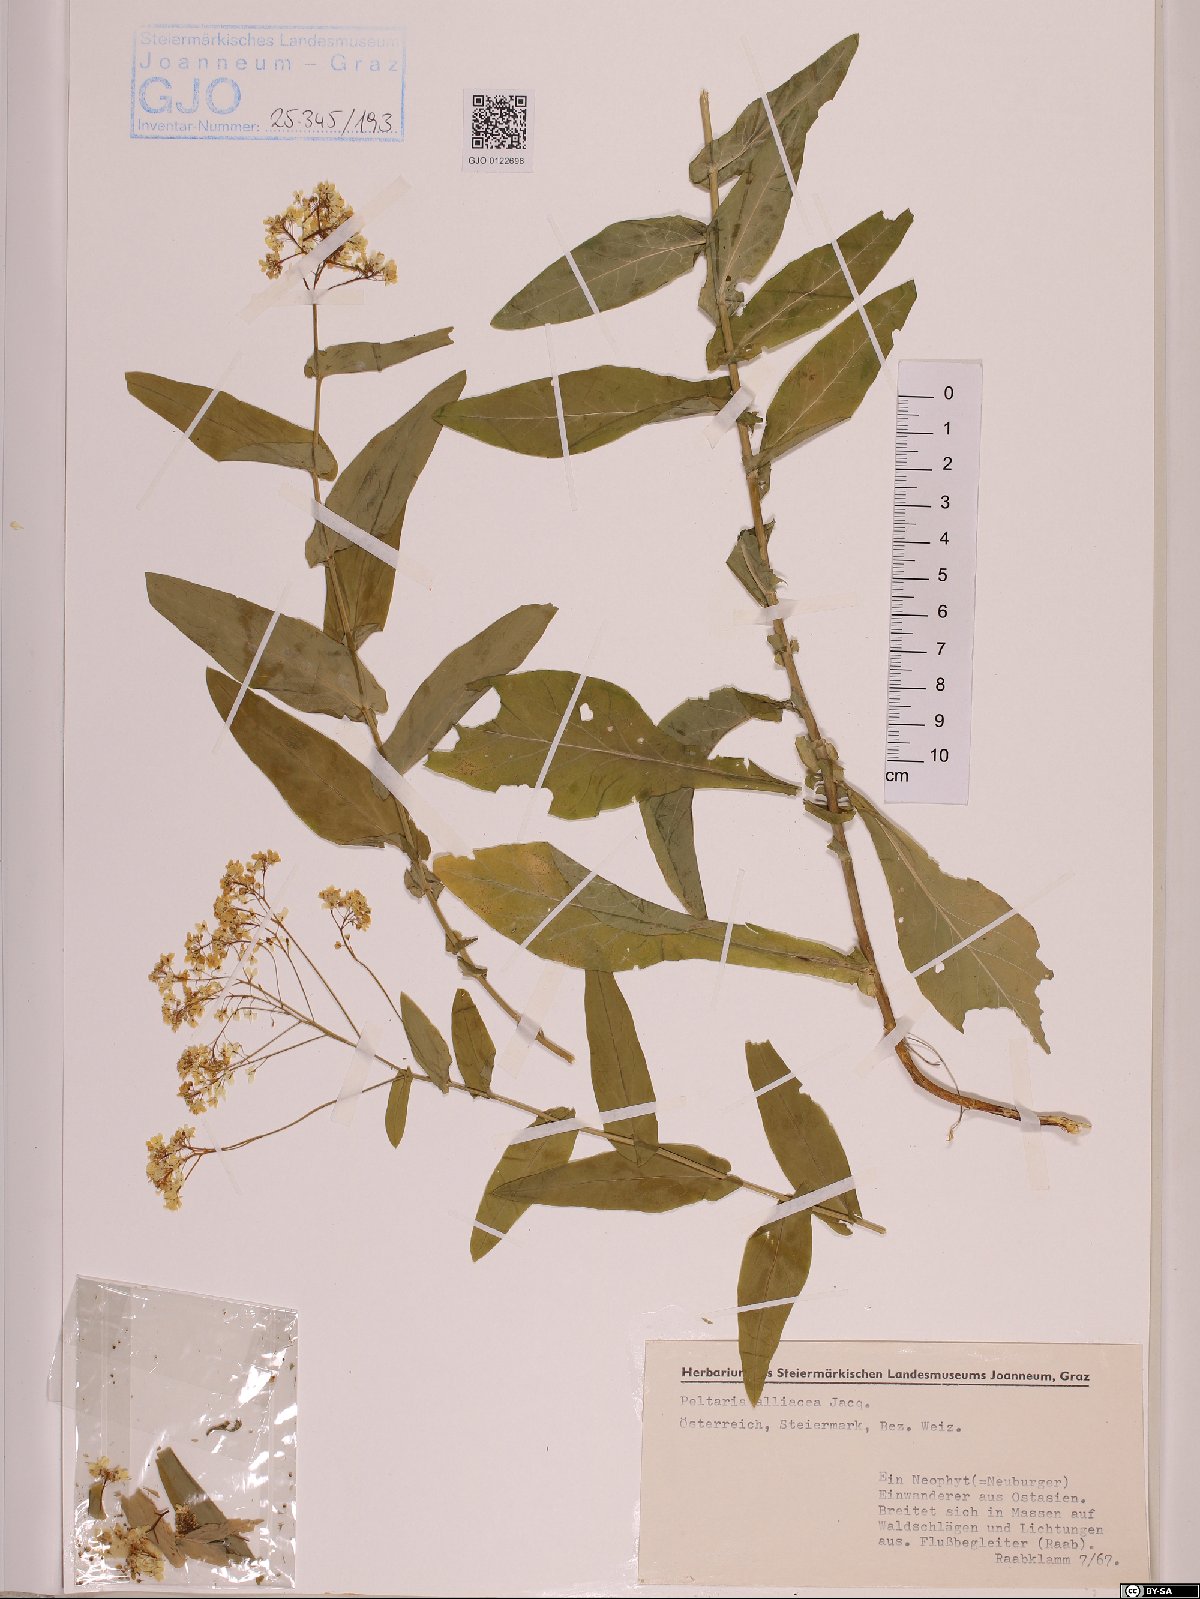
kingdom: Plantae
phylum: Tracheophyta
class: Magnoliopsida
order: Brassicales
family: Brassicaceae
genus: Peltaria
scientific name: Peltaria alliacea
